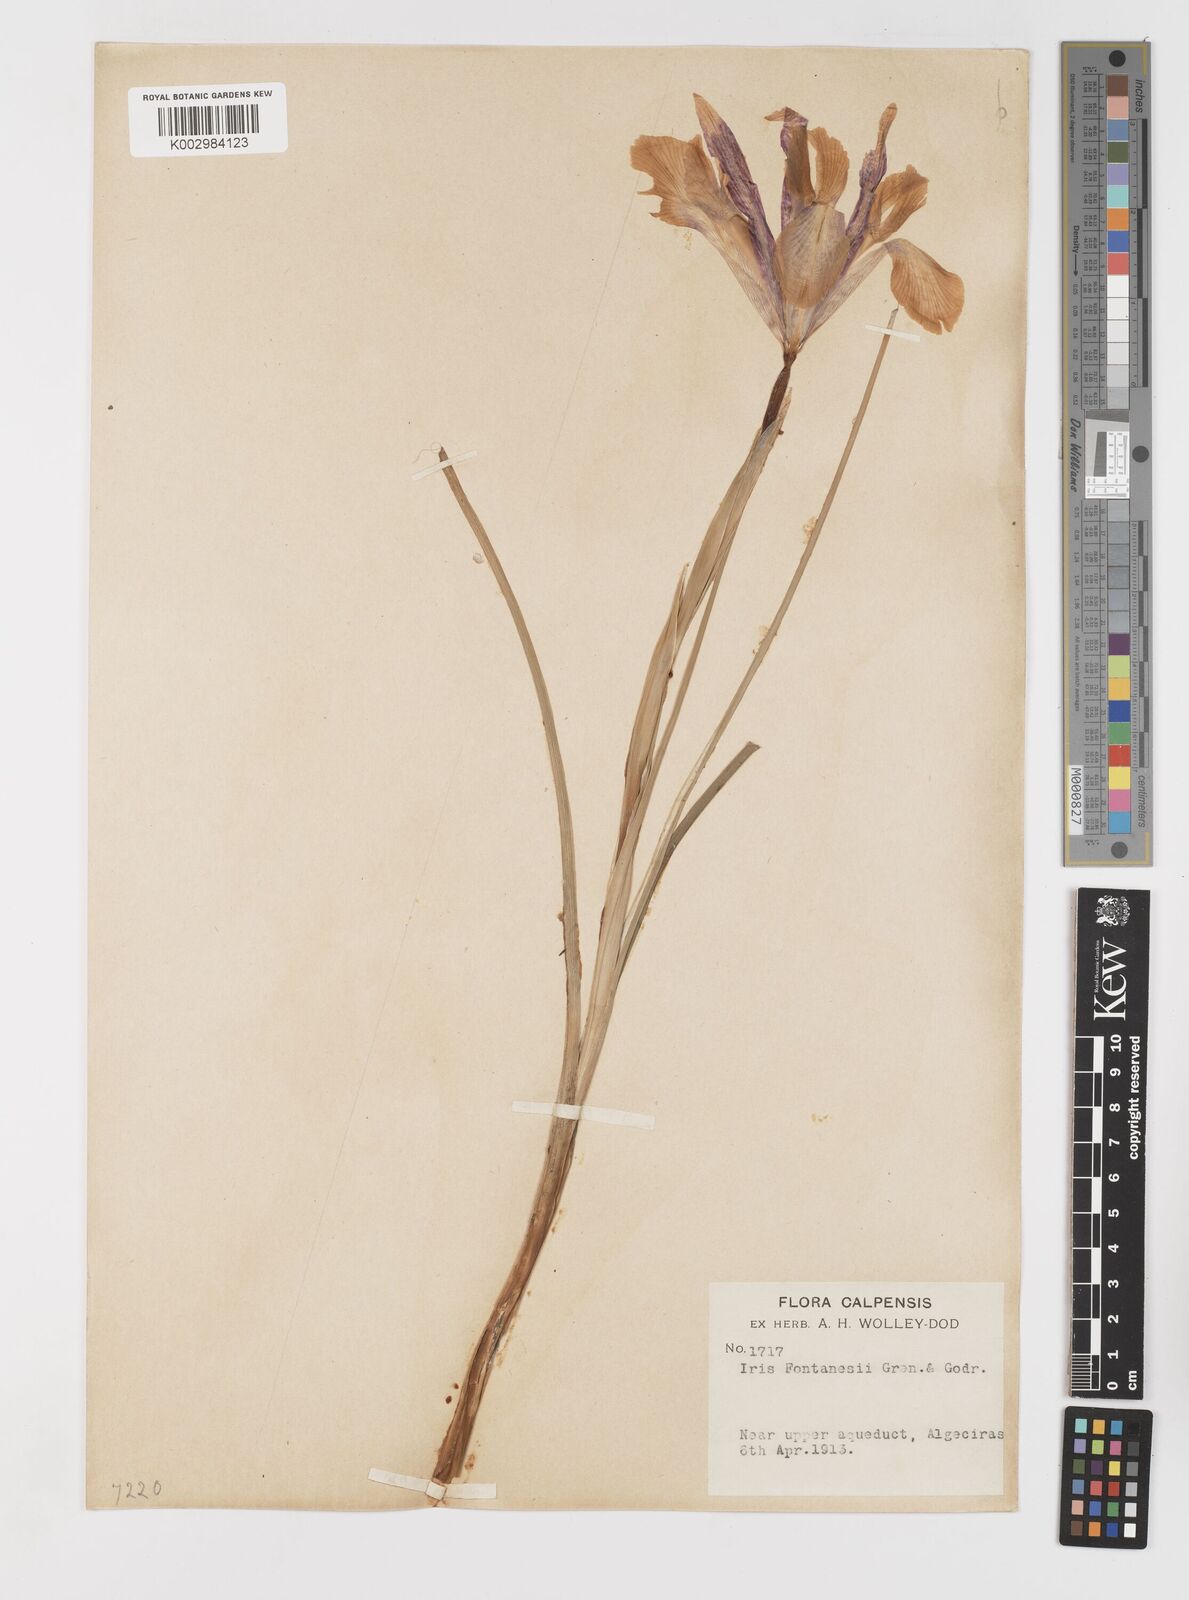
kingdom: Plantae
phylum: Tracheophyta
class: Liliopsida
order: Asparagales
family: Iridaceae
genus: Iris
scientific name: Iris xiphium
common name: Spanish iris
